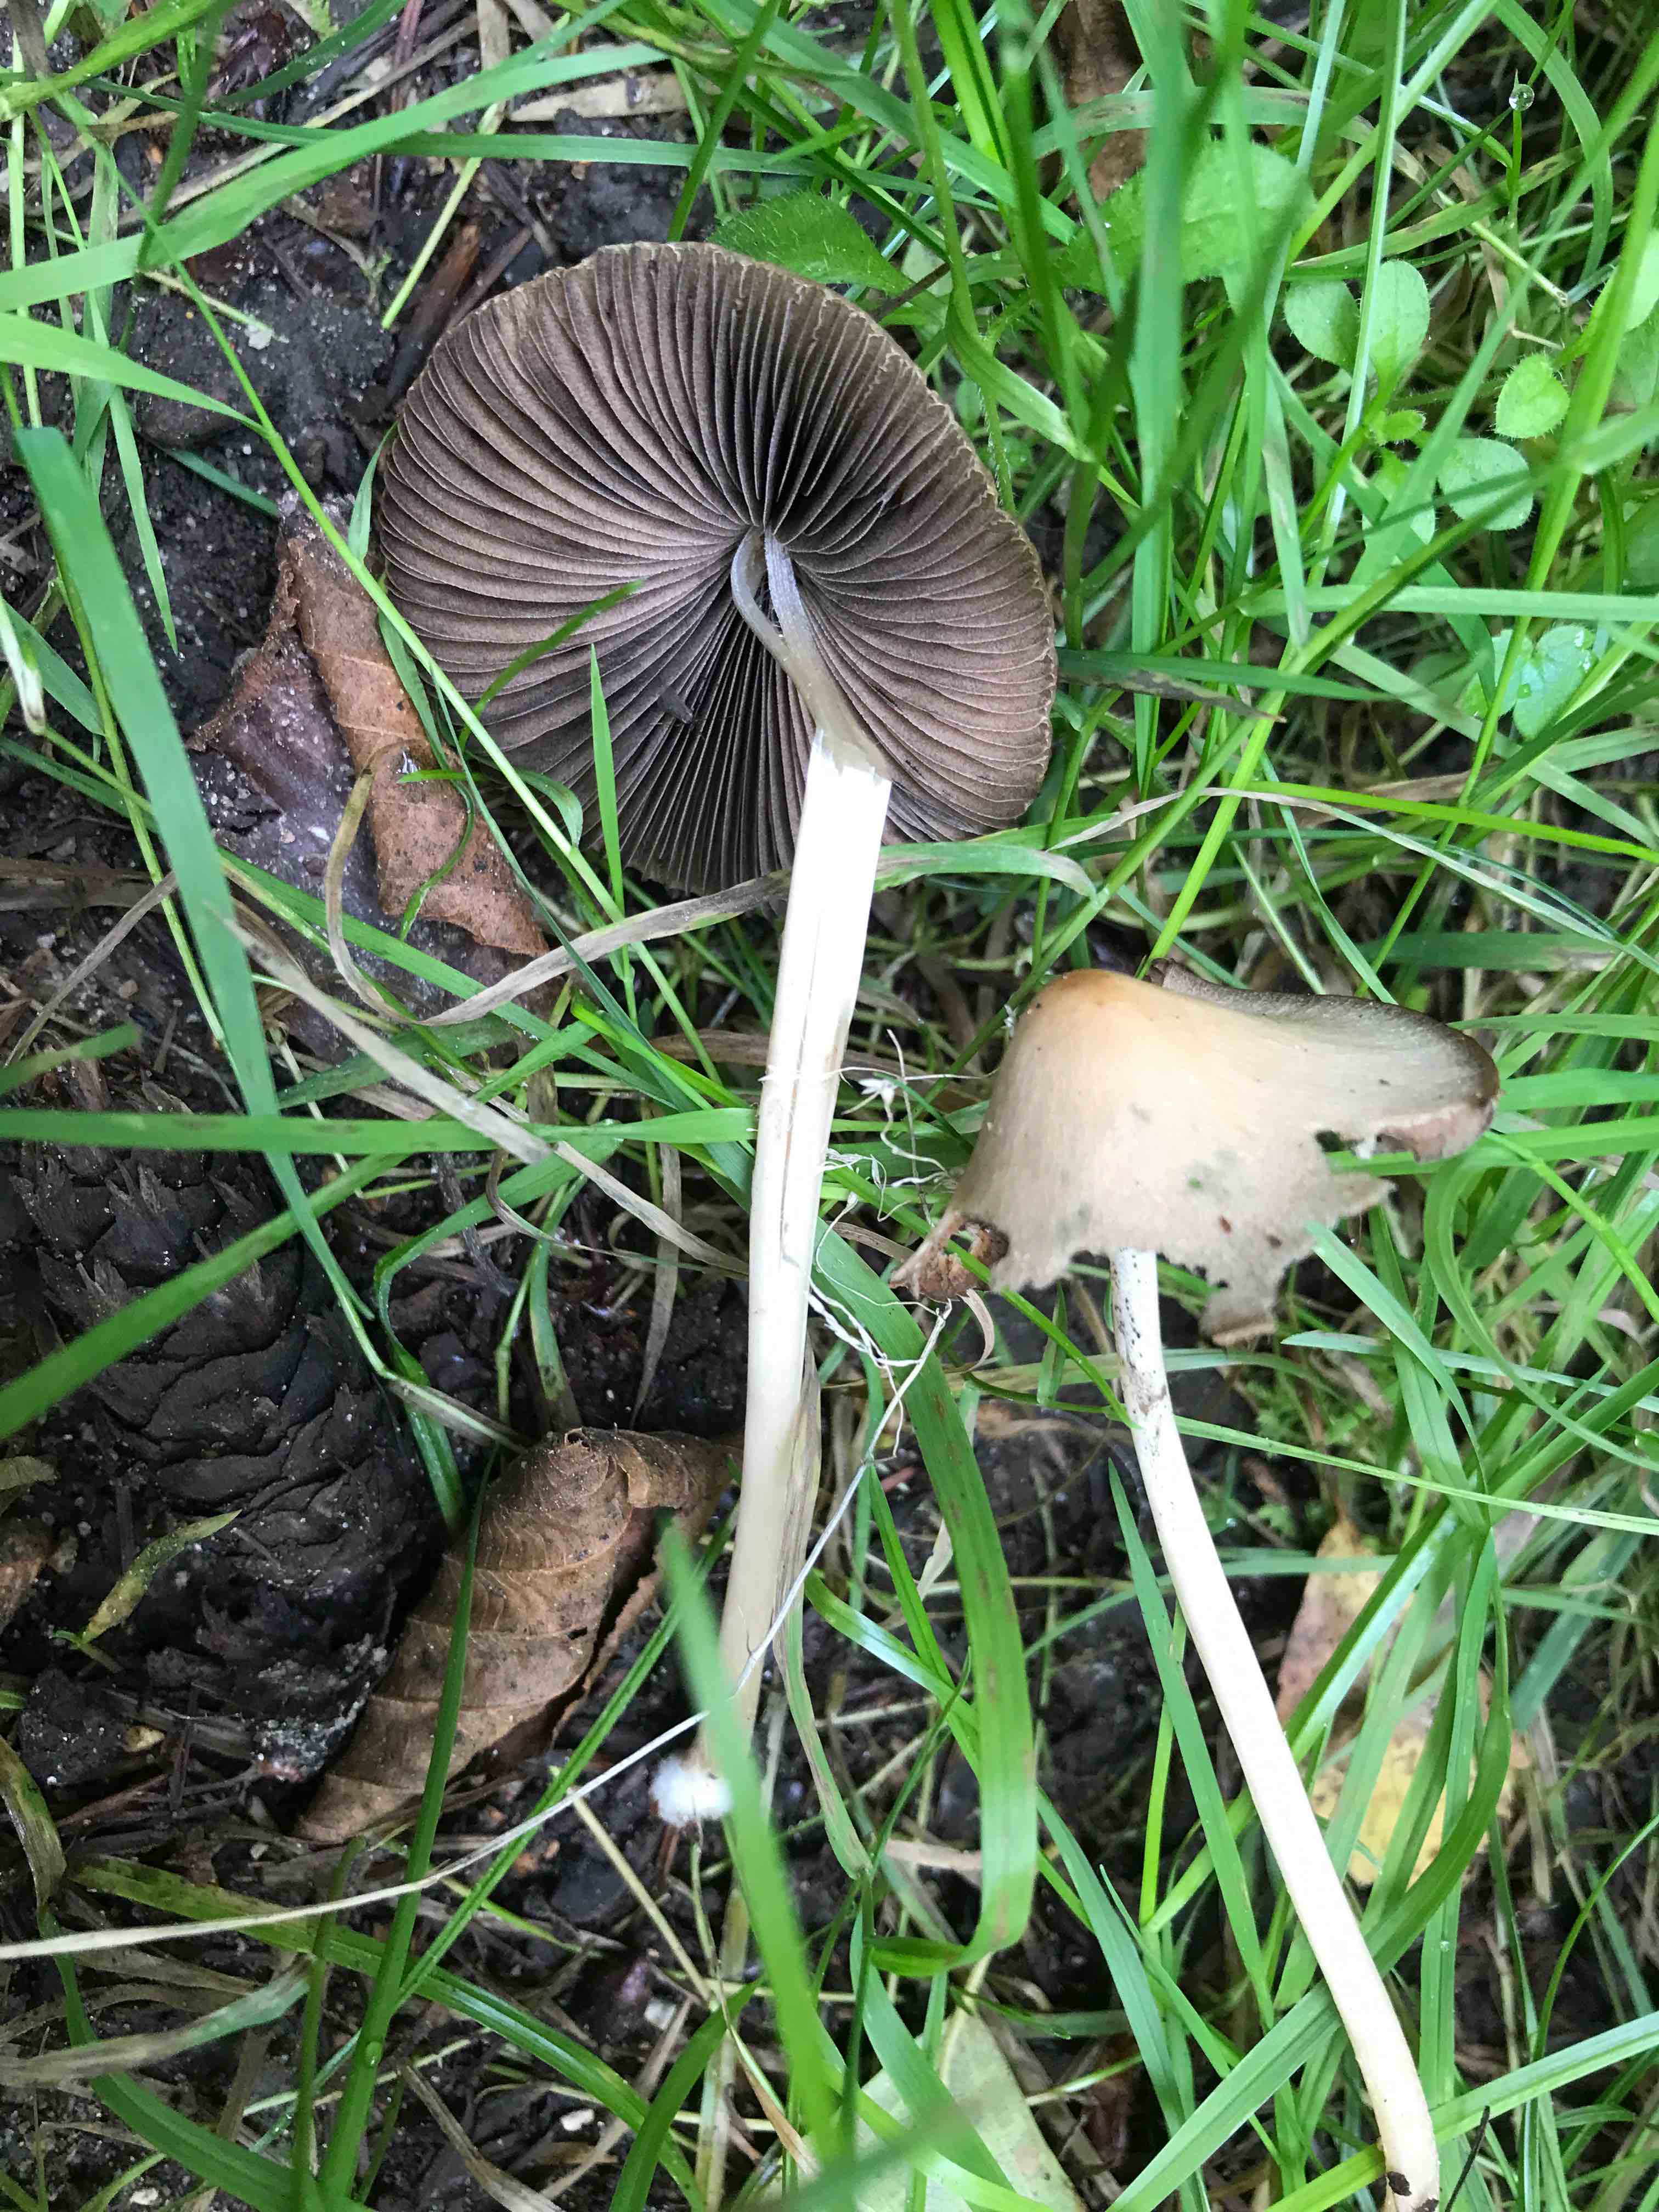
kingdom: Fungi
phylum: Basidiomycota
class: Agaricomycetes
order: Agaricales
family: Psathyrellaceae
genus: Parasola
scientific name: Parasola conopilea
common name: kegle-hjulhat
